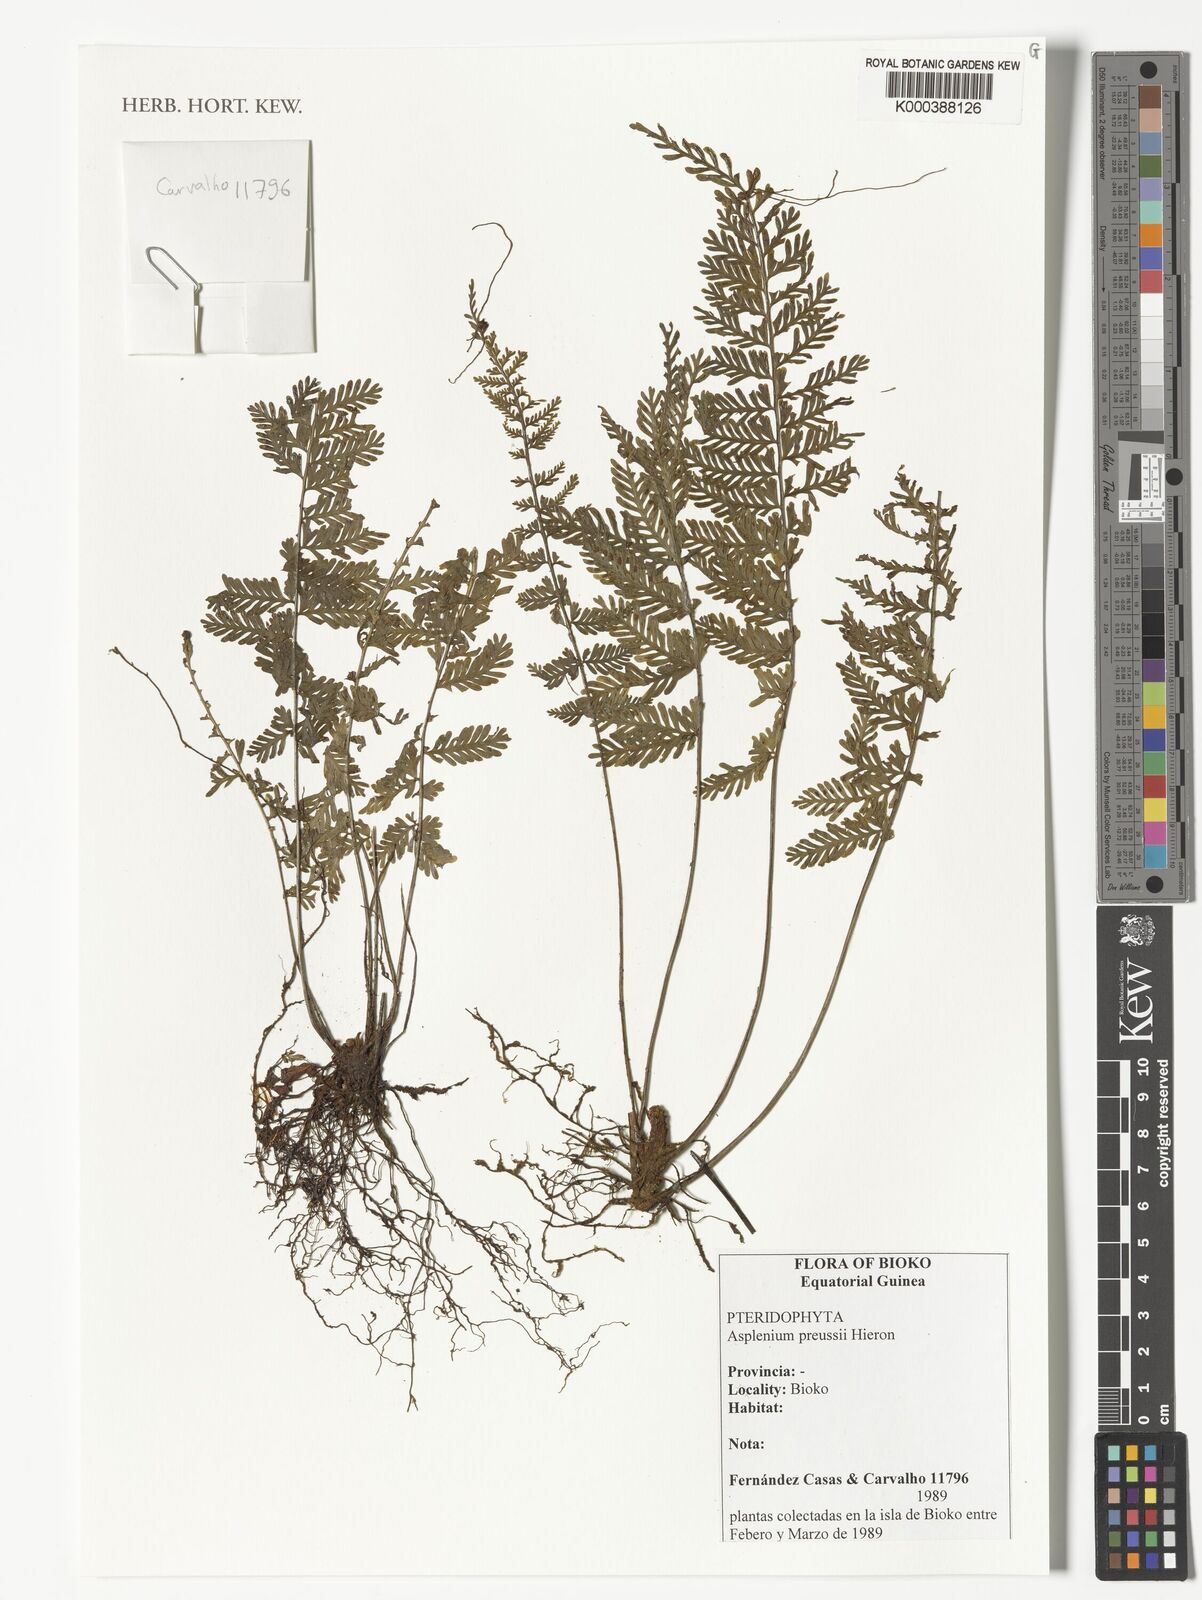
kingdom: Plantae
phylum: Tracheophyta
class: Polypodiopsida
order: Polypodiales
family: Aspleniaceae
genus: Asplenium
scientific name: Asplenium preussii
